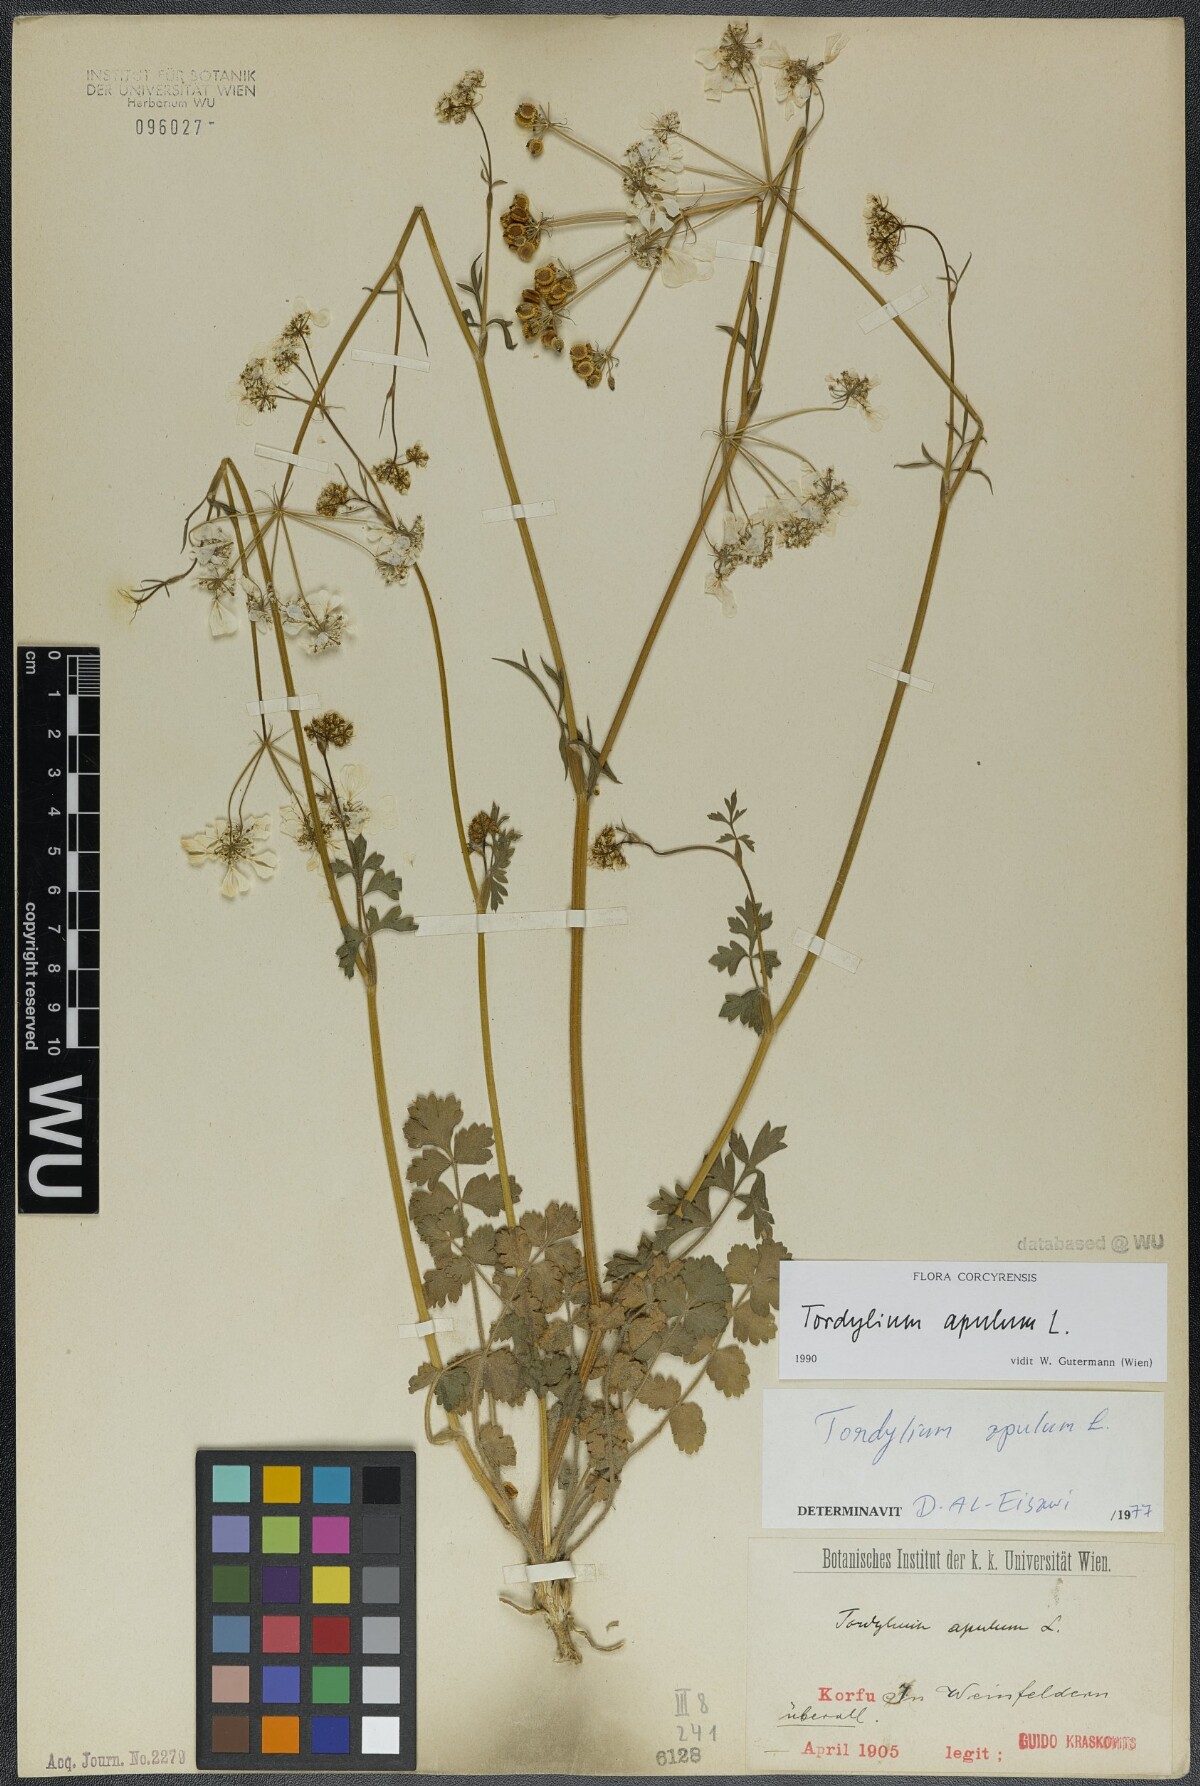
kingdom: Plantae
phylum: Tracheophyta
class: Magnoliopsida
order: Apiales
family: Apiaceae
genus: Tordylium
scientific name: Tordylium apulum
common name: Mediterranean hartwort
